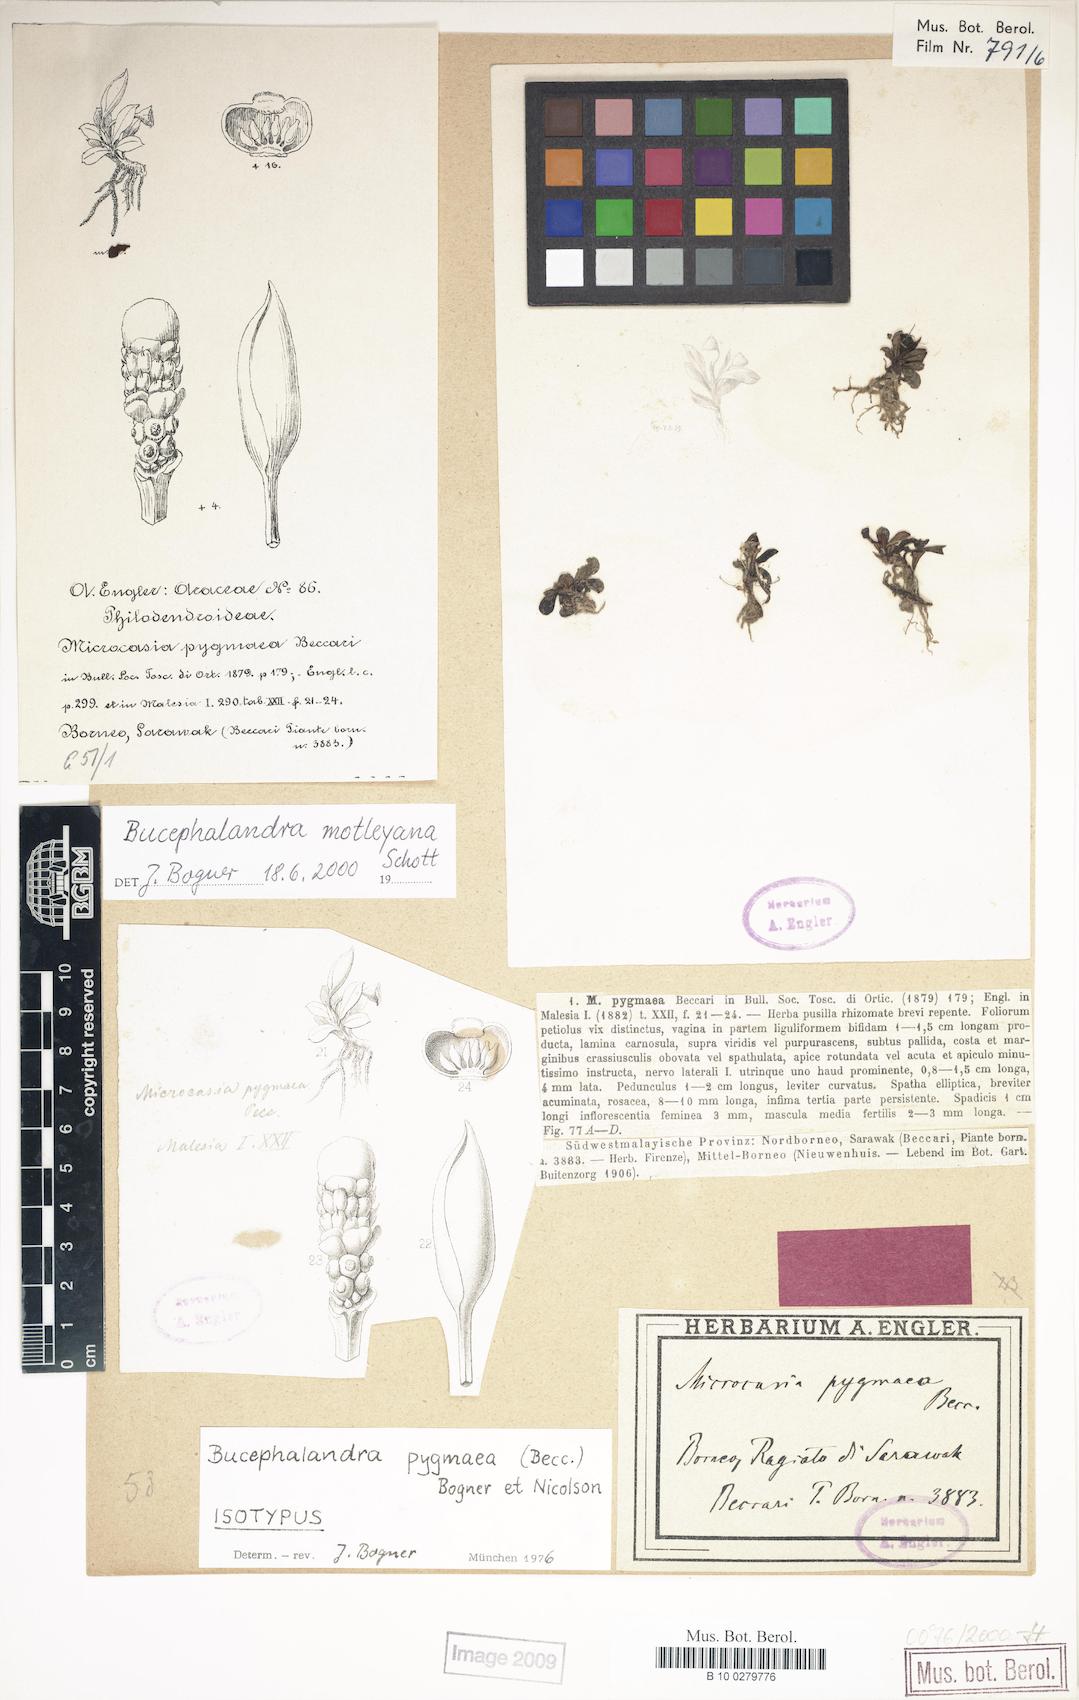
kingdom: Plantae
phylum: Tracheophyta
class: Liliopsida
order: Alismatales
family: Araceae
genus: Bucephalandra
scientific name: Bucephalandra motleyana
